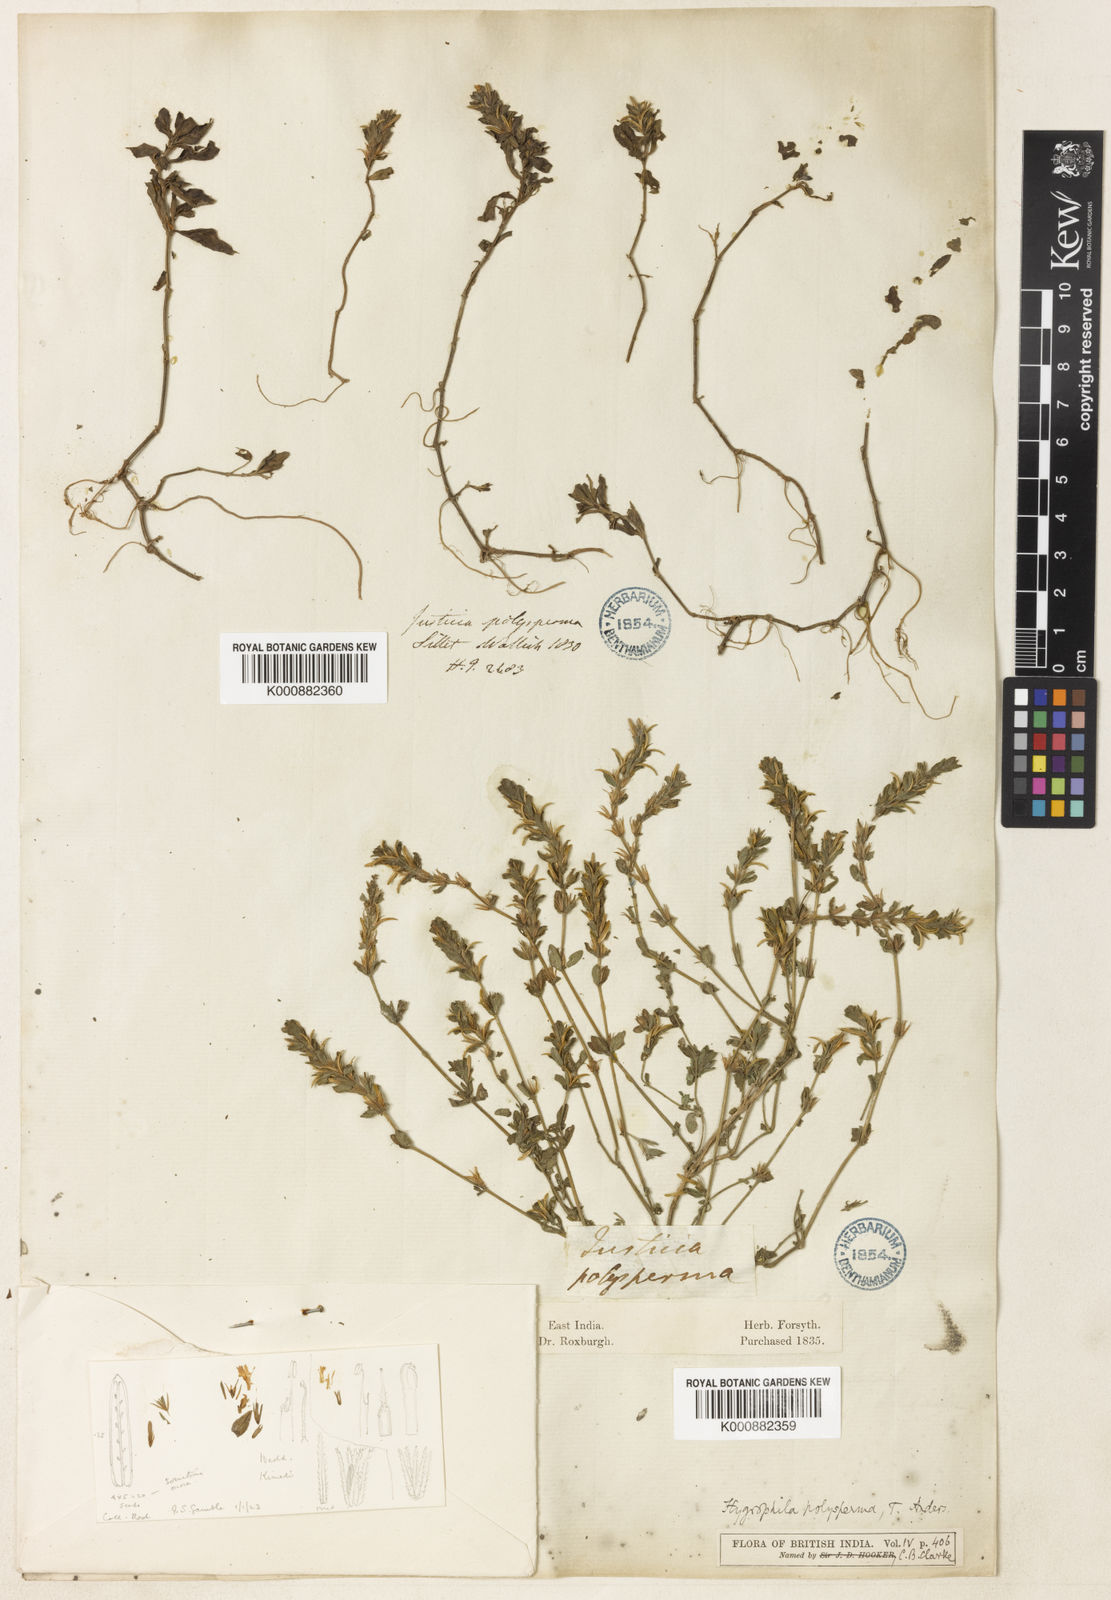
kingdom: Plantae
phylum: Tracheophyta
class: Magnoliopsida
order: Lamiales
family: Acanthaceae
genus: Hygrophila
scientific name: Hygrophila polysperma
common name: Indian swampweed
